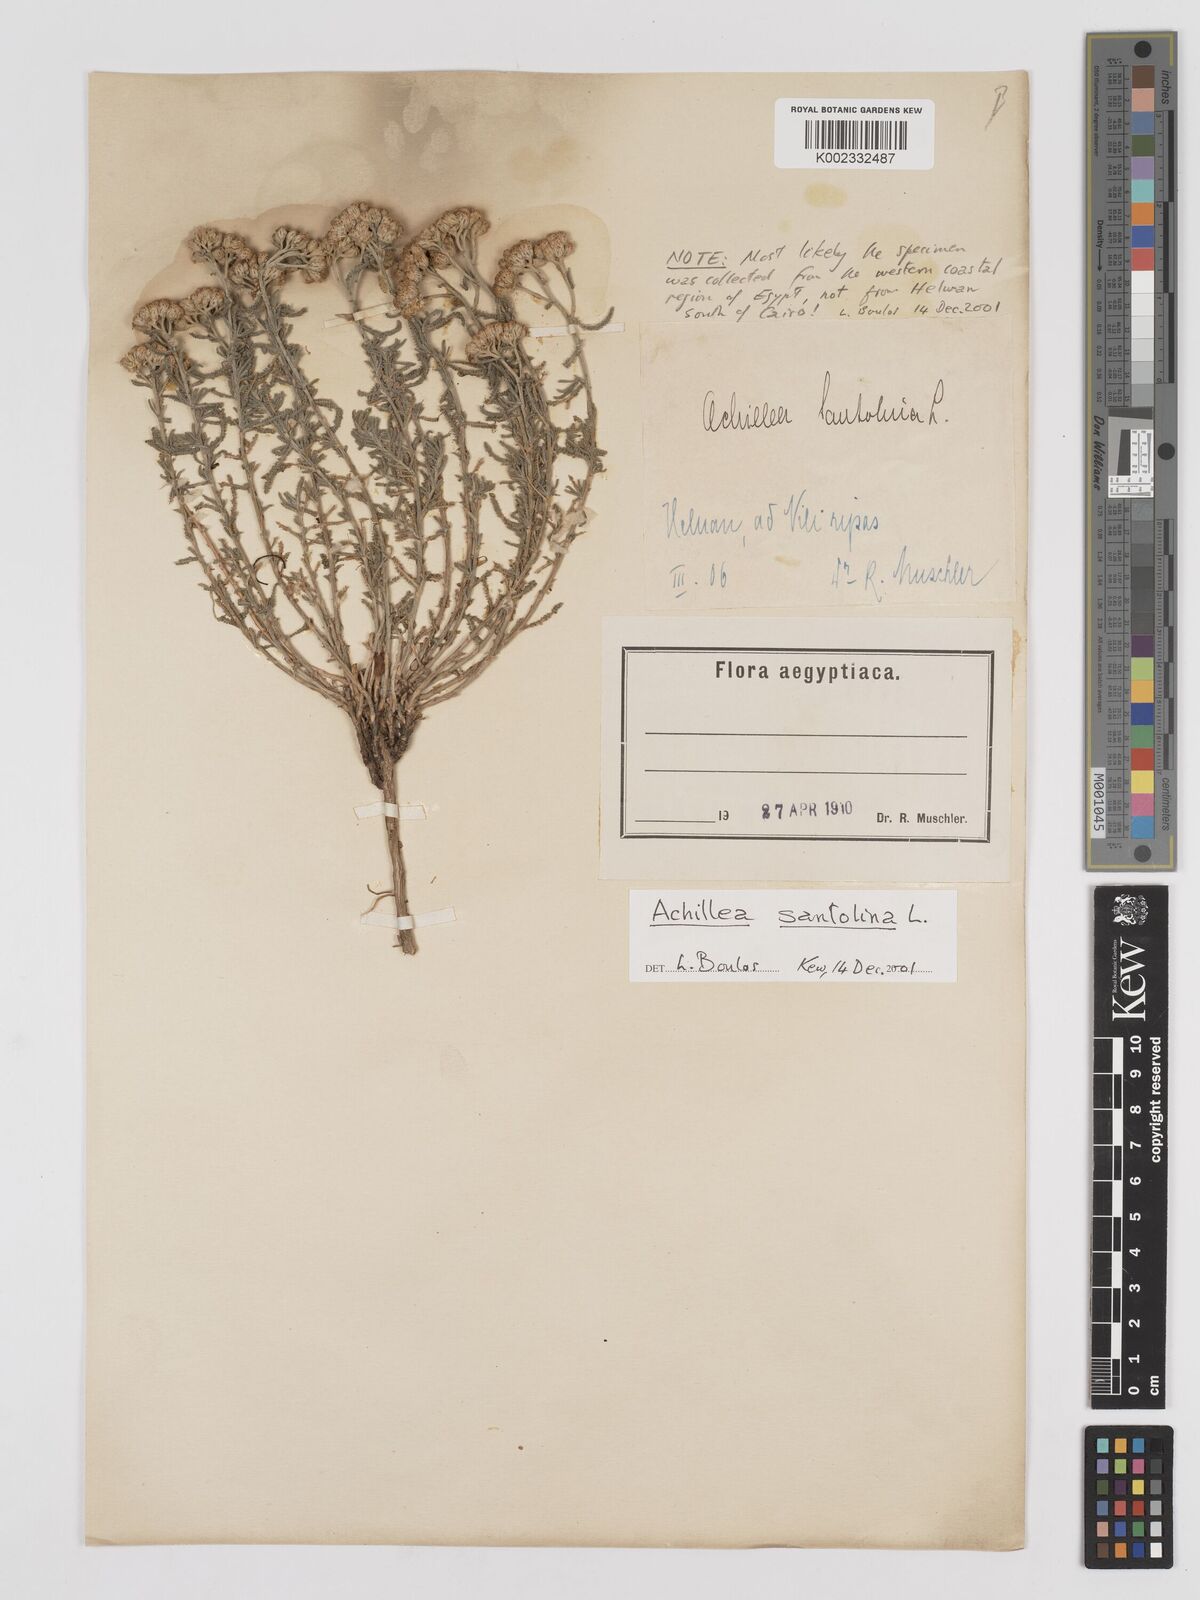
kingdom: Plantae
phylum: Tracheophyta
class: Magnoliopsida
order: Asterales
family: Asteraceae
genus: Achillea
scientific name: Achillea tenuifolia
